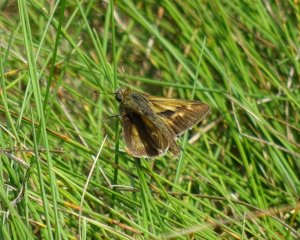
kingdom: Animalia
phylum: Arthropoda
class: Insecta
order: Lepidoptera
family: Hesperiidae
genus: Polites
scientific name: Polites
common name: Long Dash Skipper
